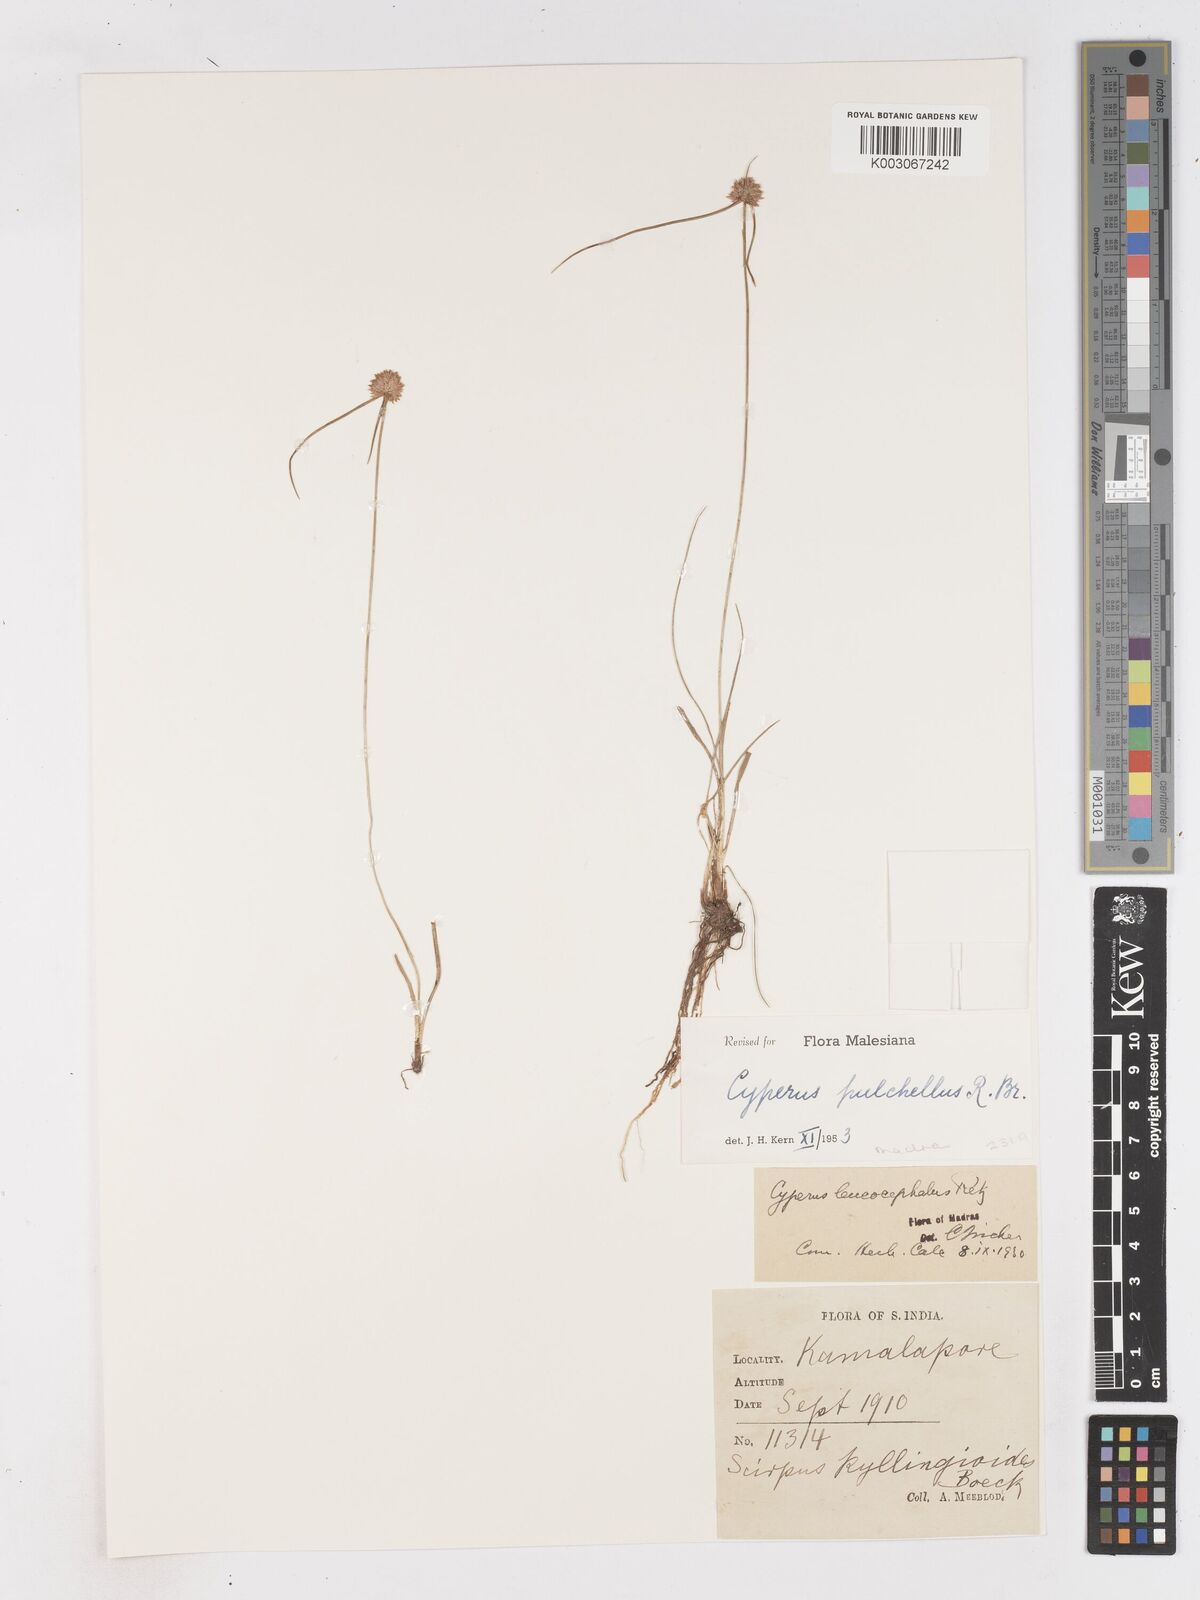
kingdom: Plantae
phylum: Tracheophyta
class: Liliopsida
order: Poales
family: Cyperaceae
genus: Cyperus
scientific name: Cyperus pulchellus
